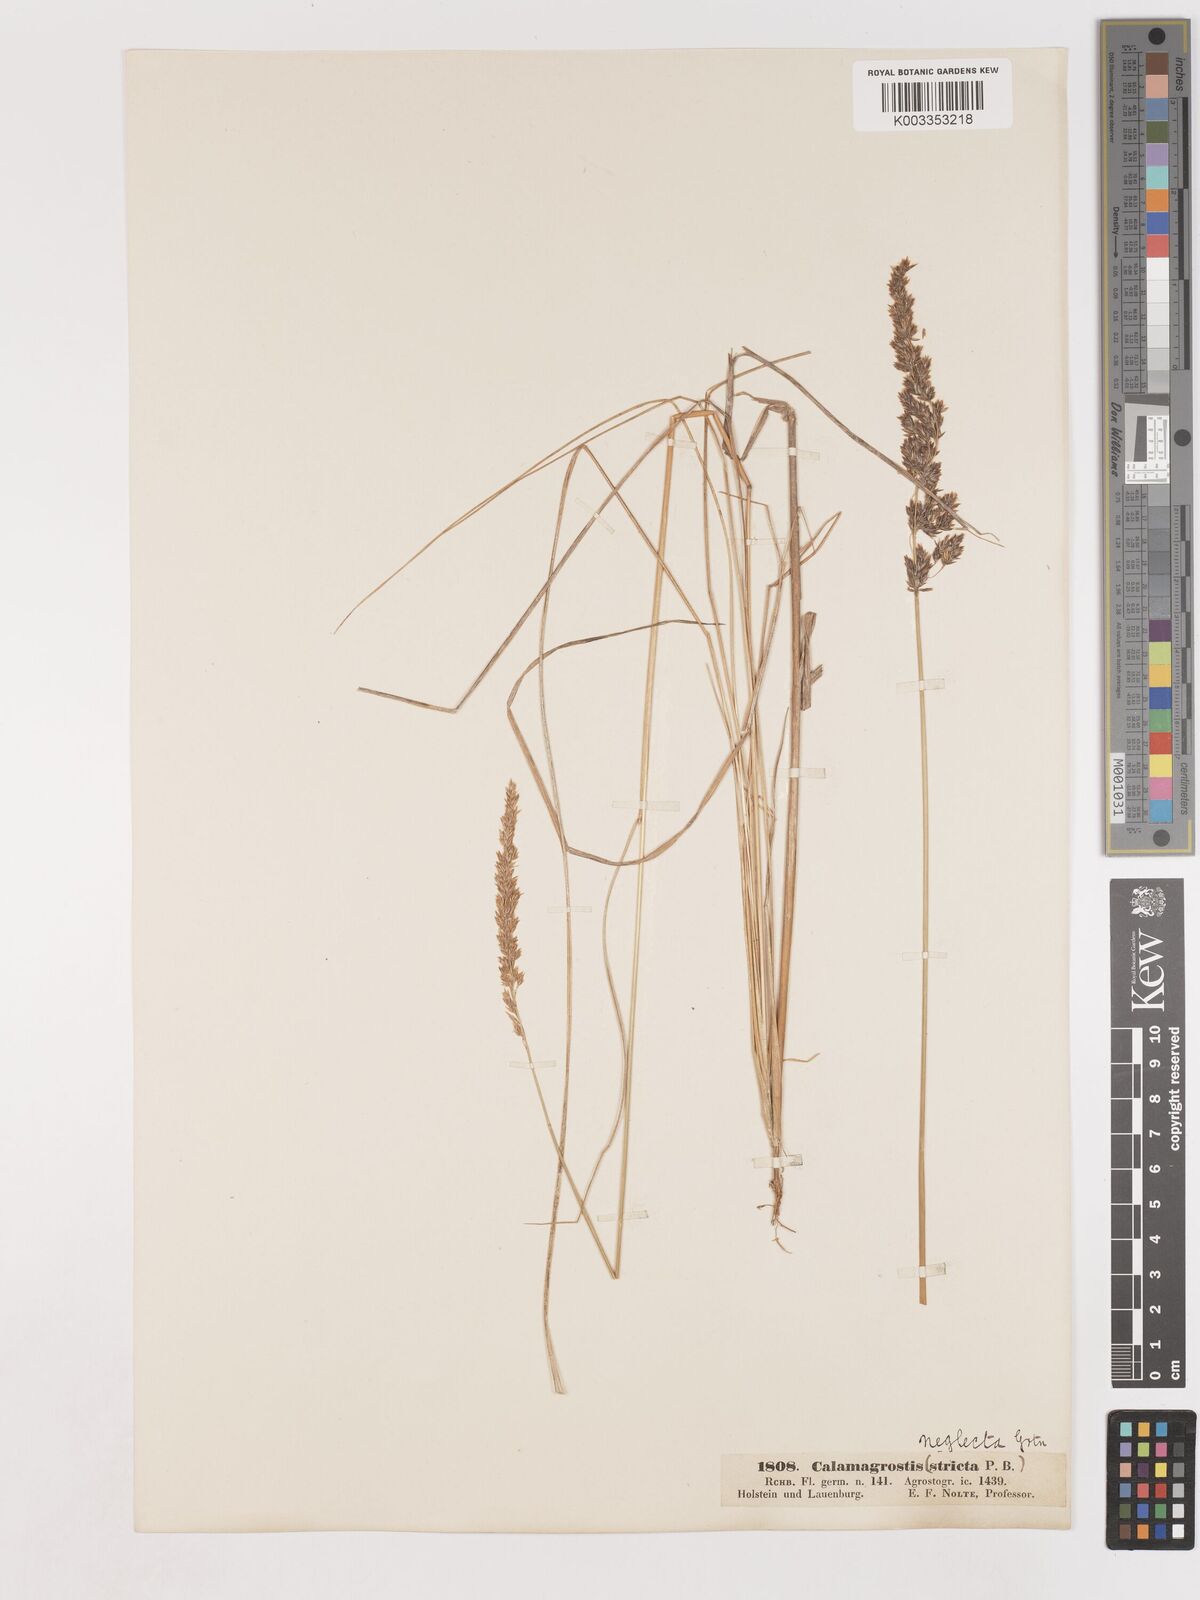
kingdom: Plantae
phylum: Tracheophyta
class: Liliopsida
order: Poales
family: Poaceae
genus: Cinnagrostis
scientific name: Cinnagrostis recta
